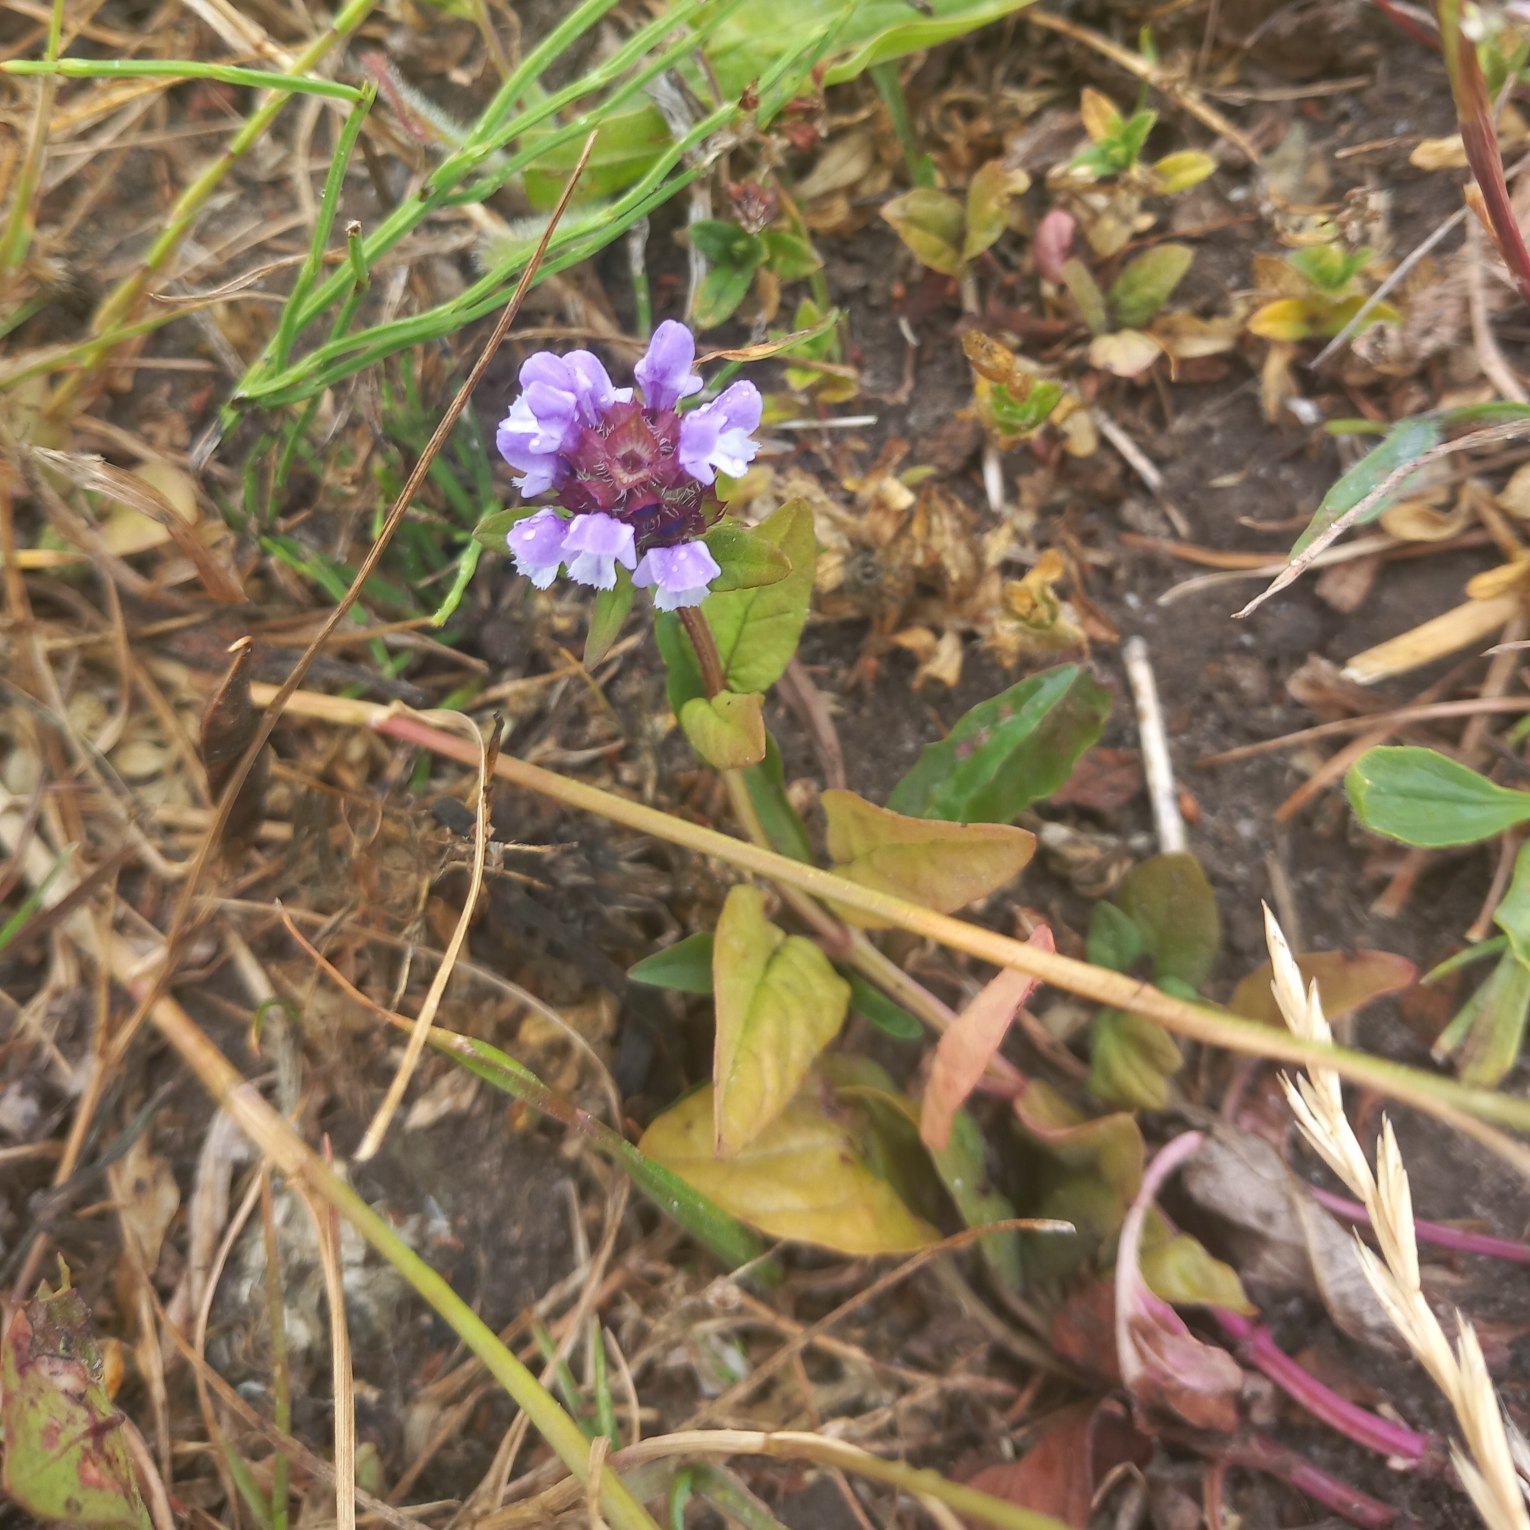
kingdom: Plantae
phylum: Tracheophyta
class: Magnoliopsida
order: Lamiales
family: Lamiaceae
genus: Prunella
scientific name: Prunella vulgaris
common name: Almindelig brunelle
